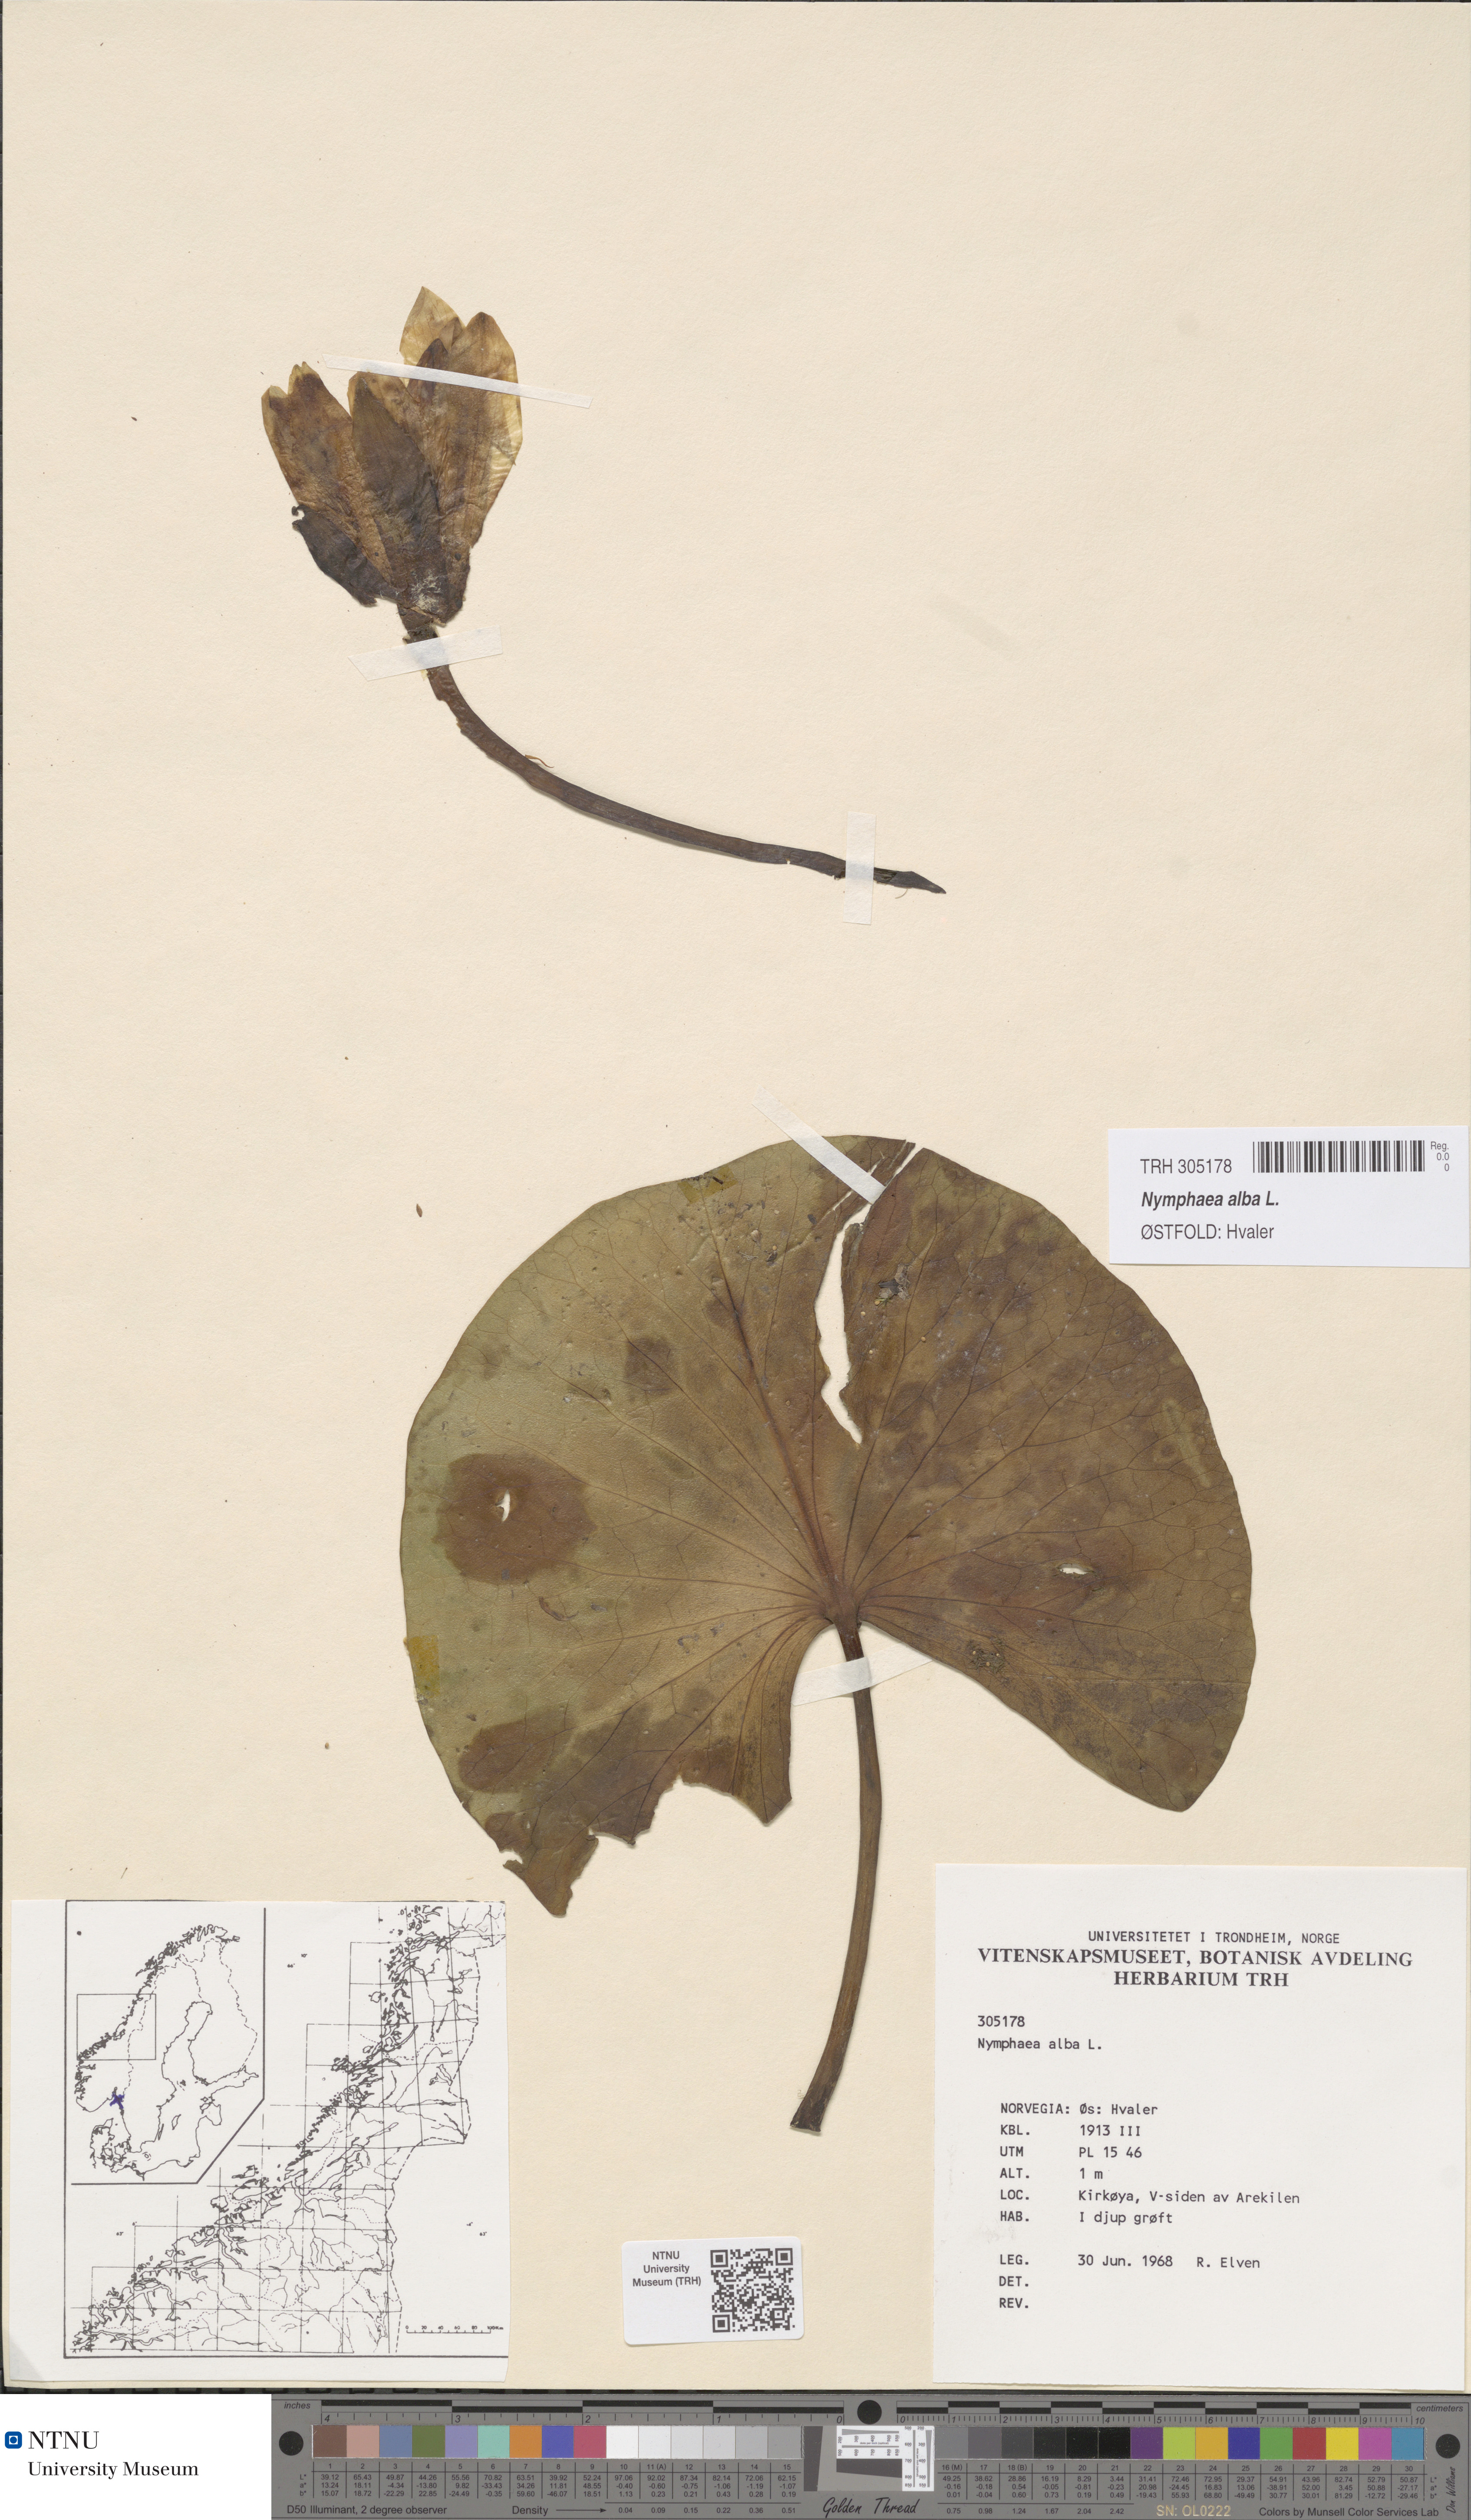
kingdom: Plantae
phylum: Tracheophyta
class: Magnoliopsida
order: Nymphaeales
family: Nymphaeaceae
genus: Nymphaea
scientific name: Nymphaea alba
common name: White water-lily
